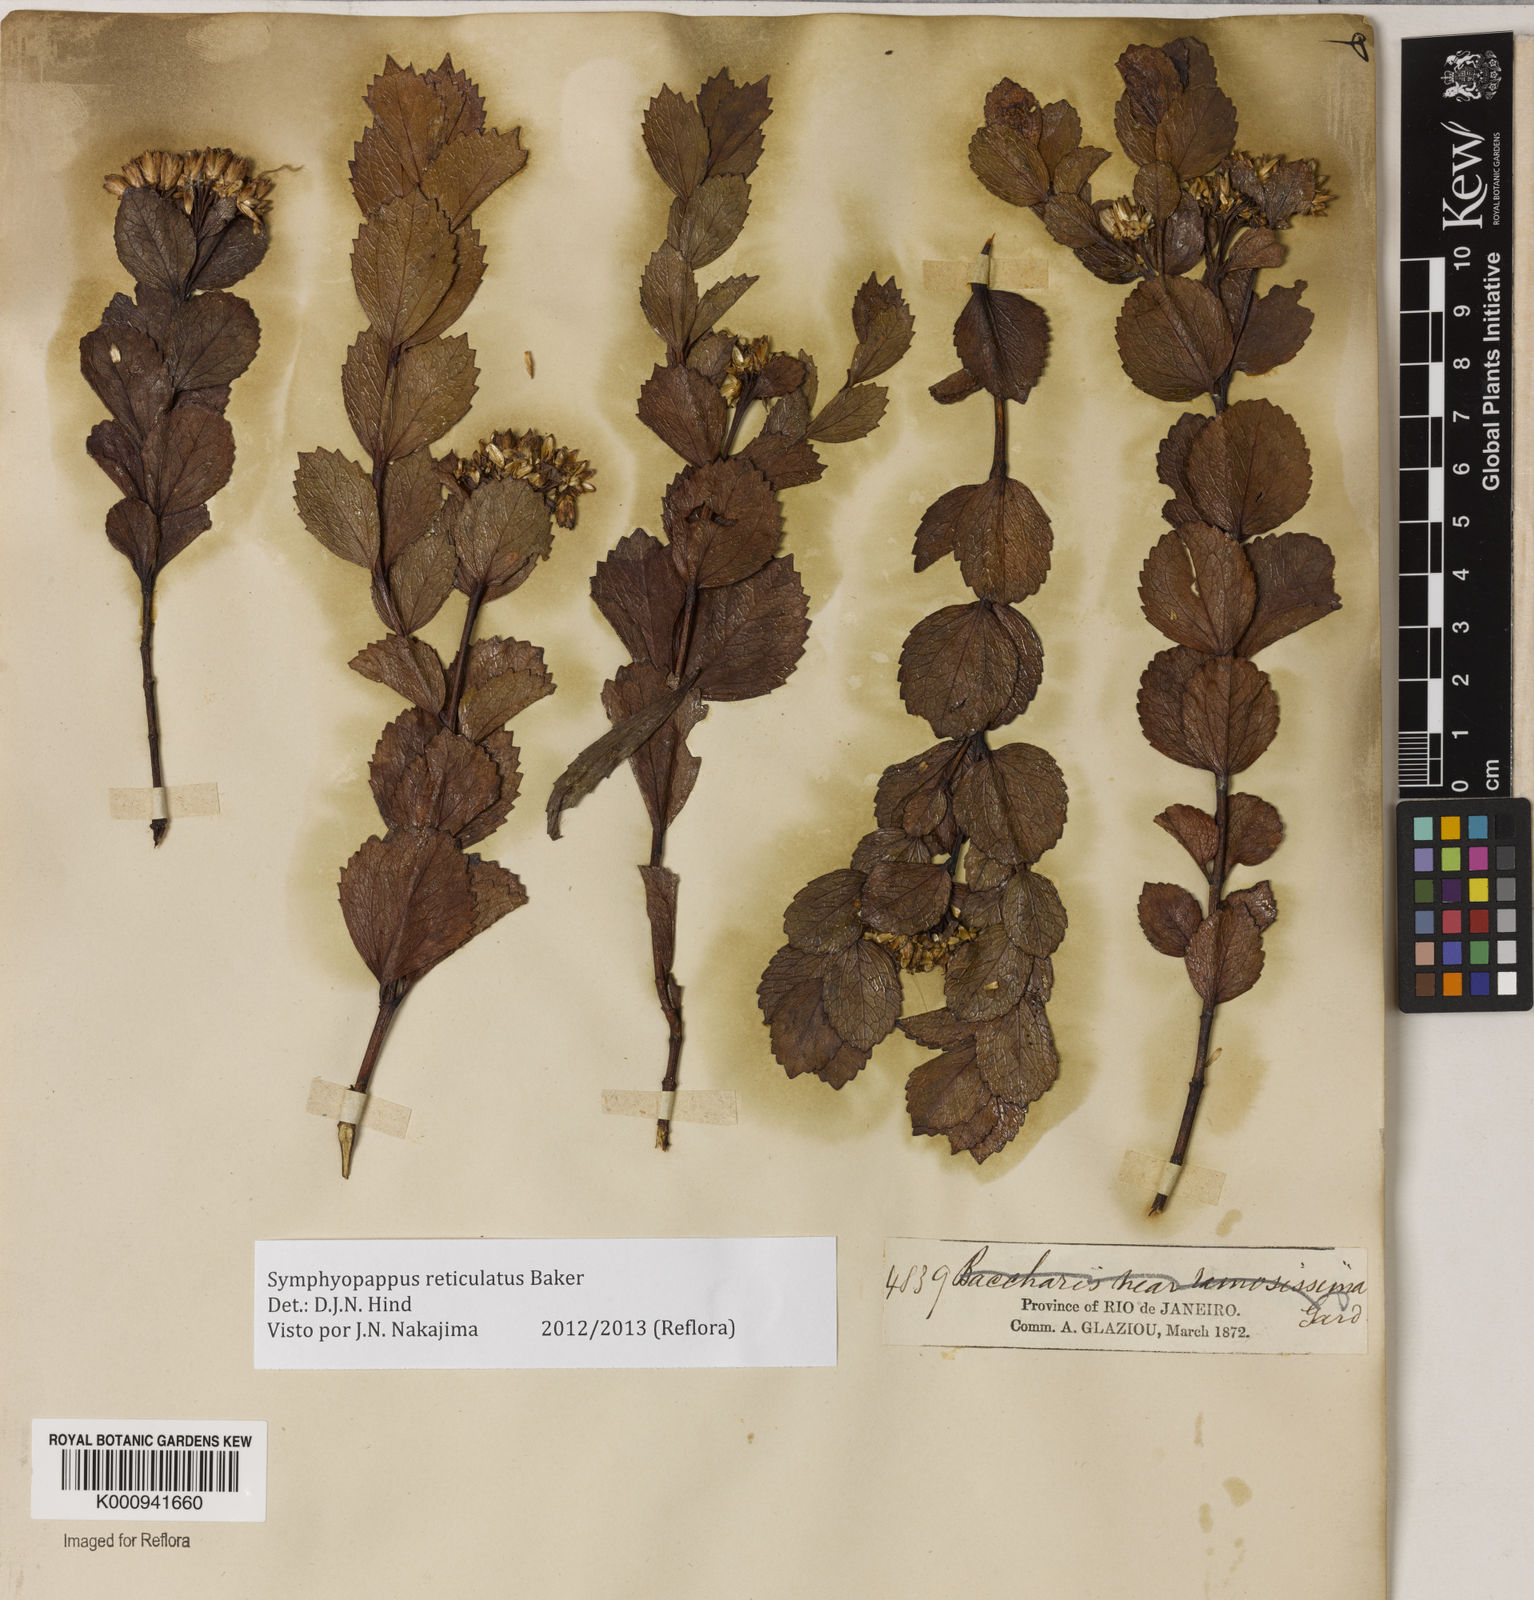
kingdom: Plantae
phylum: Tracheophyta
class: Magnoliopsida
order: Asterales
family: Asteraceae
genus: Symphyopappus
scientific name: Symphyopappus
